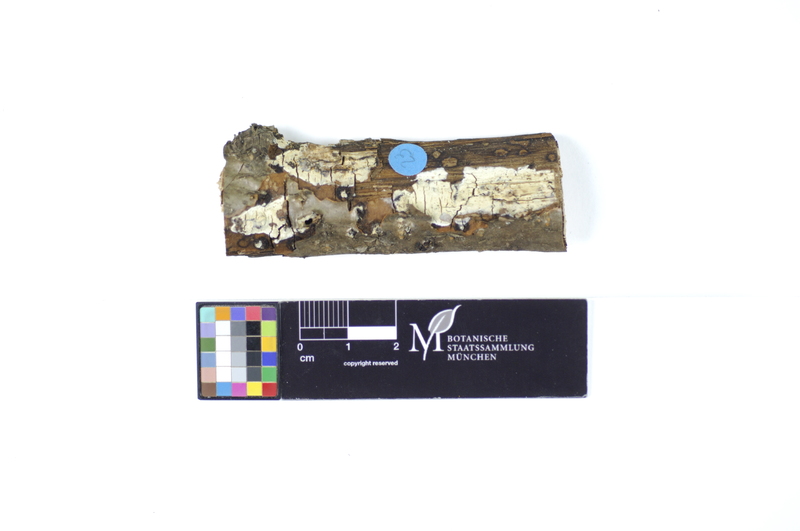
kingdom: Fungi
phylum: Basidiomycota
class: Agaricomycetes
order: Hymenochaetales
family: Rickenellaceae
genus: Peniophorella
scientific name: Peniophorella praetermissa
